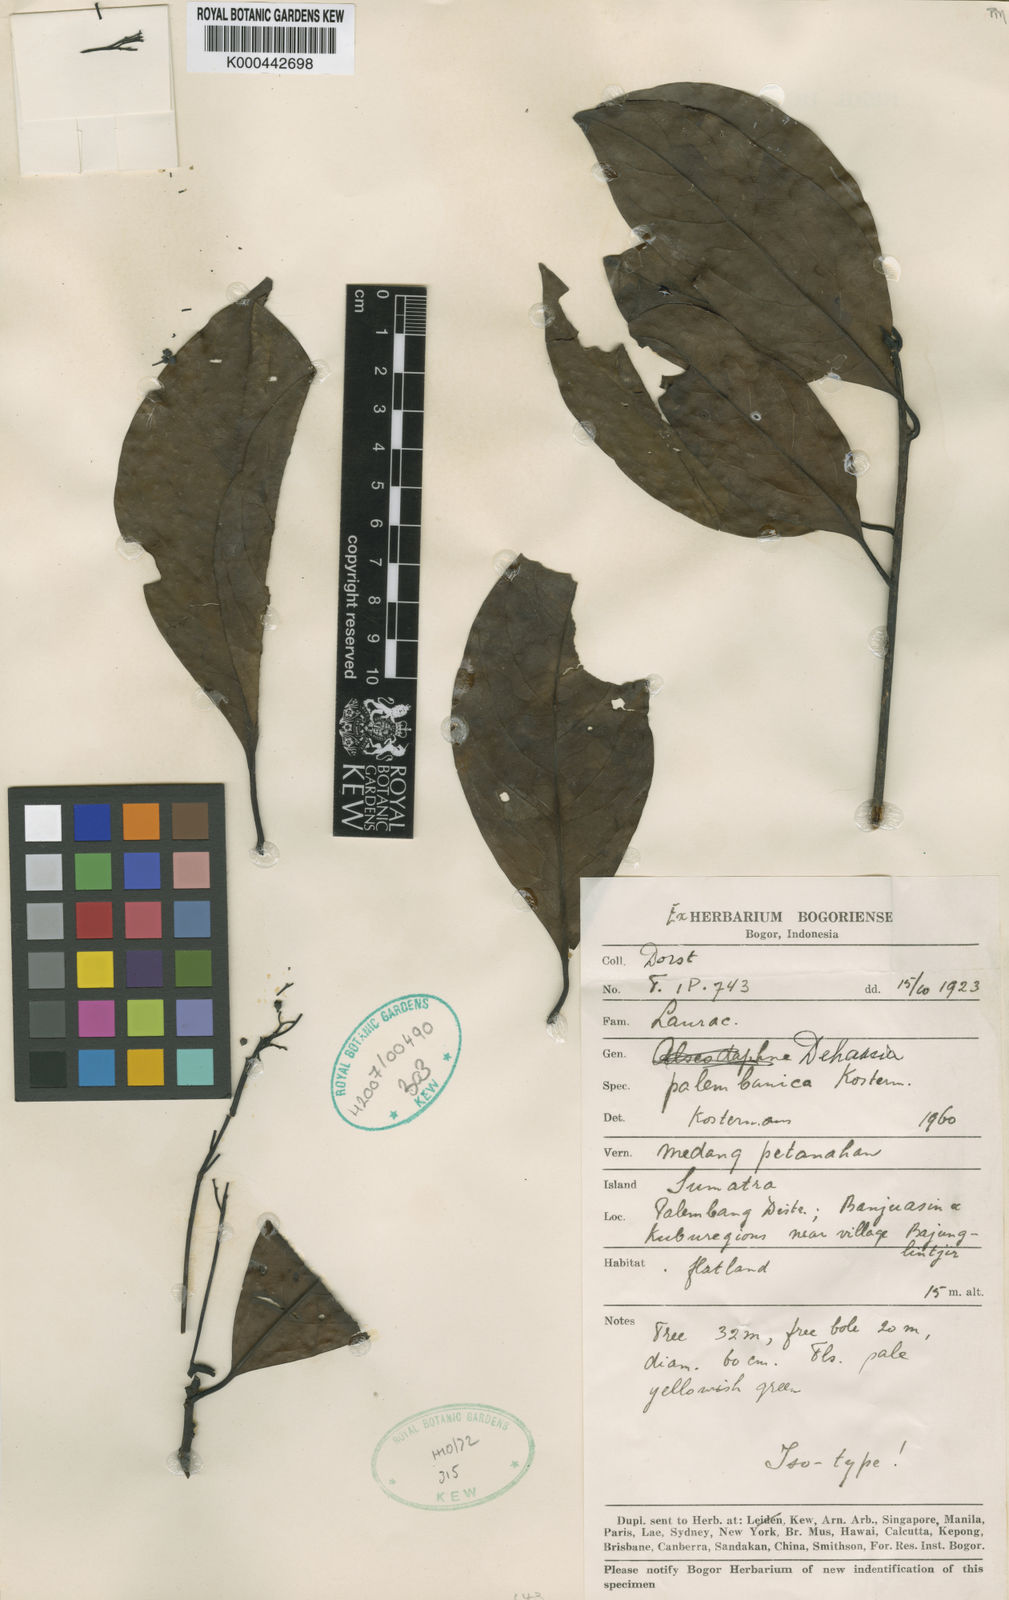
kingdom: Plantae
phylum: Tracheophyta
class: Magnoliopsida
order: Laurales
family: Lauraceae
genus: Dehaasia
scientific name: Dehaasia palembanica
